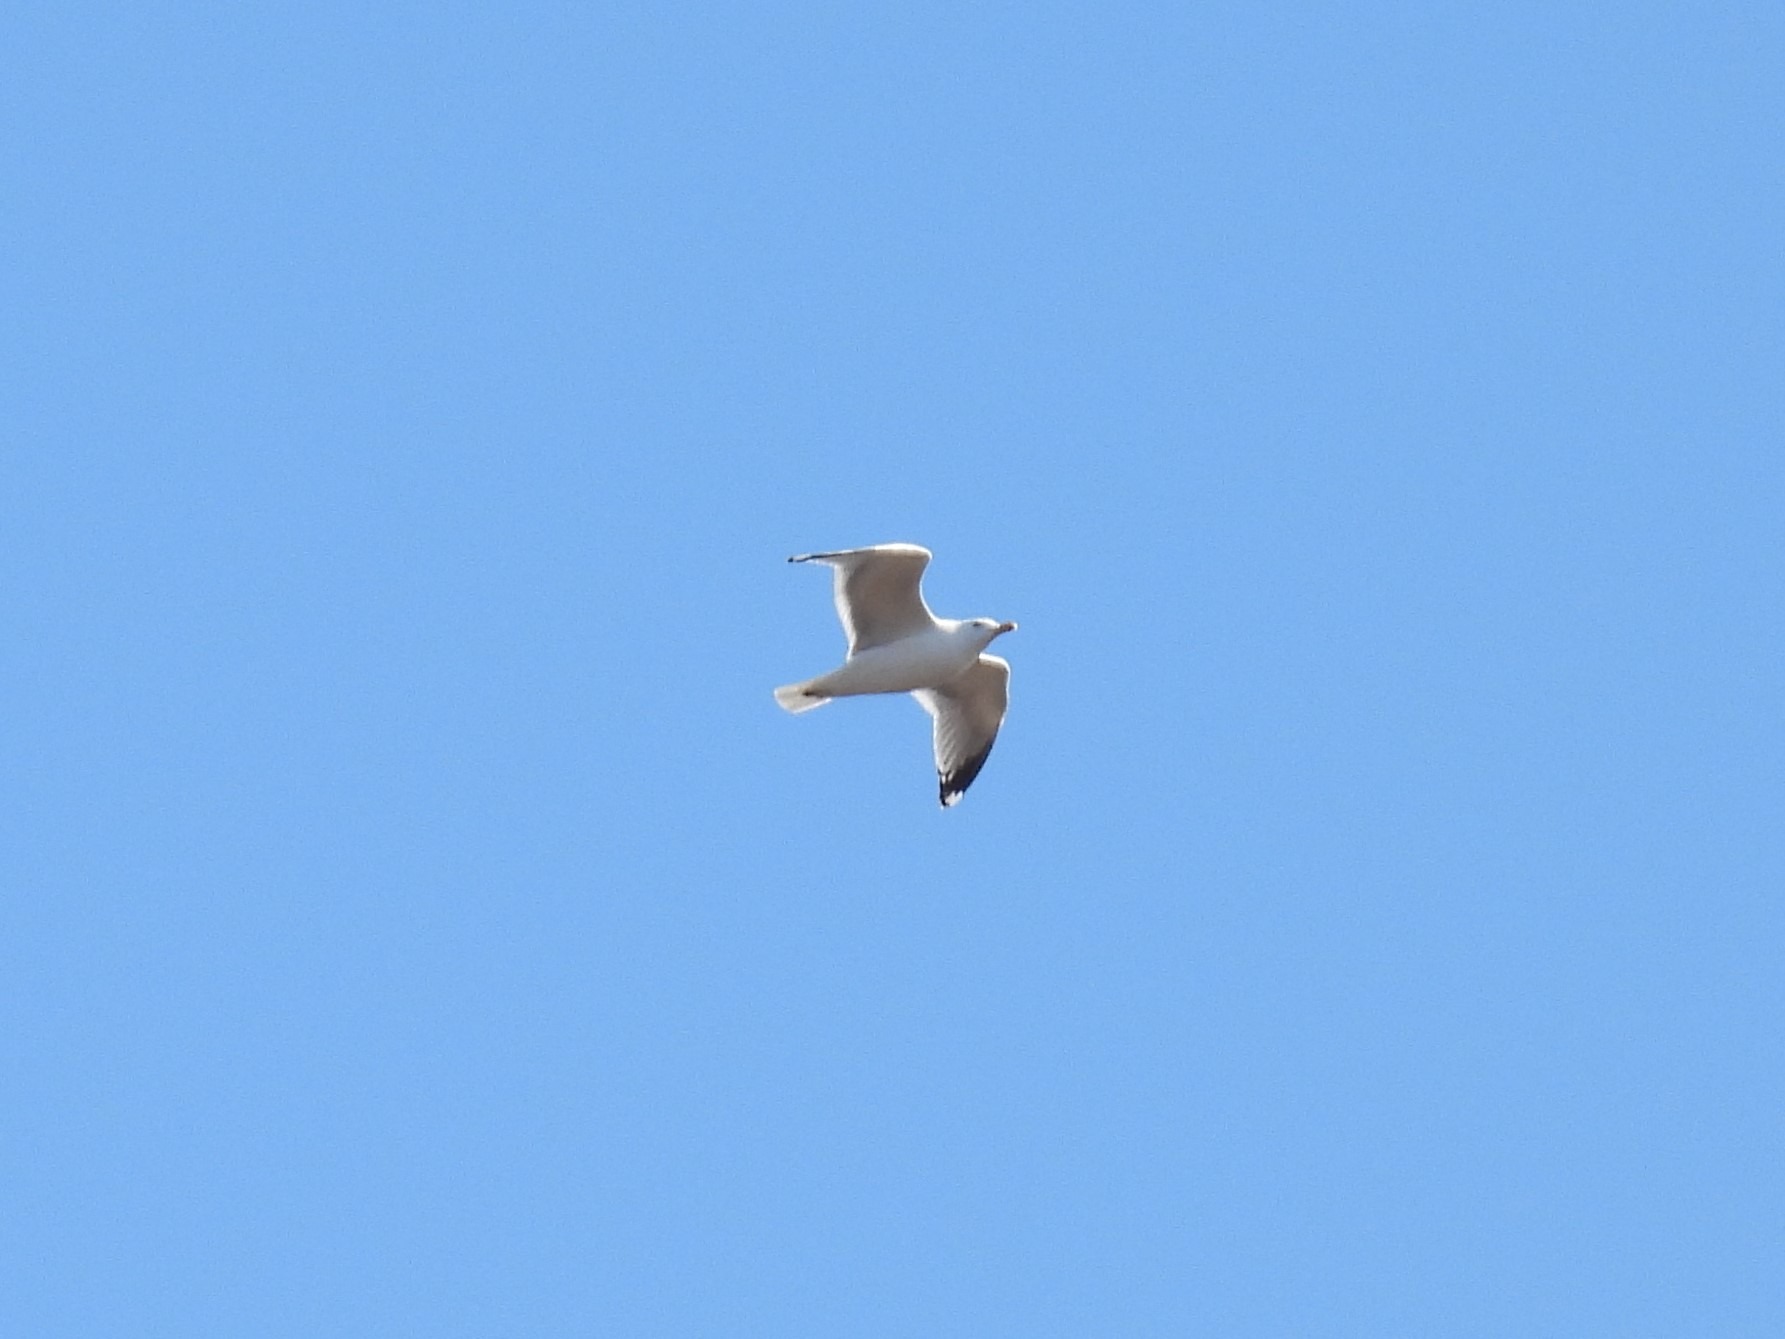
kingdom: Animalia
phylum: Chordata
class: Aves
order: Charadriiformes
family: Laridae
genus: Larus
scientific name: Larus argentatus
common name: Sølvmåge
